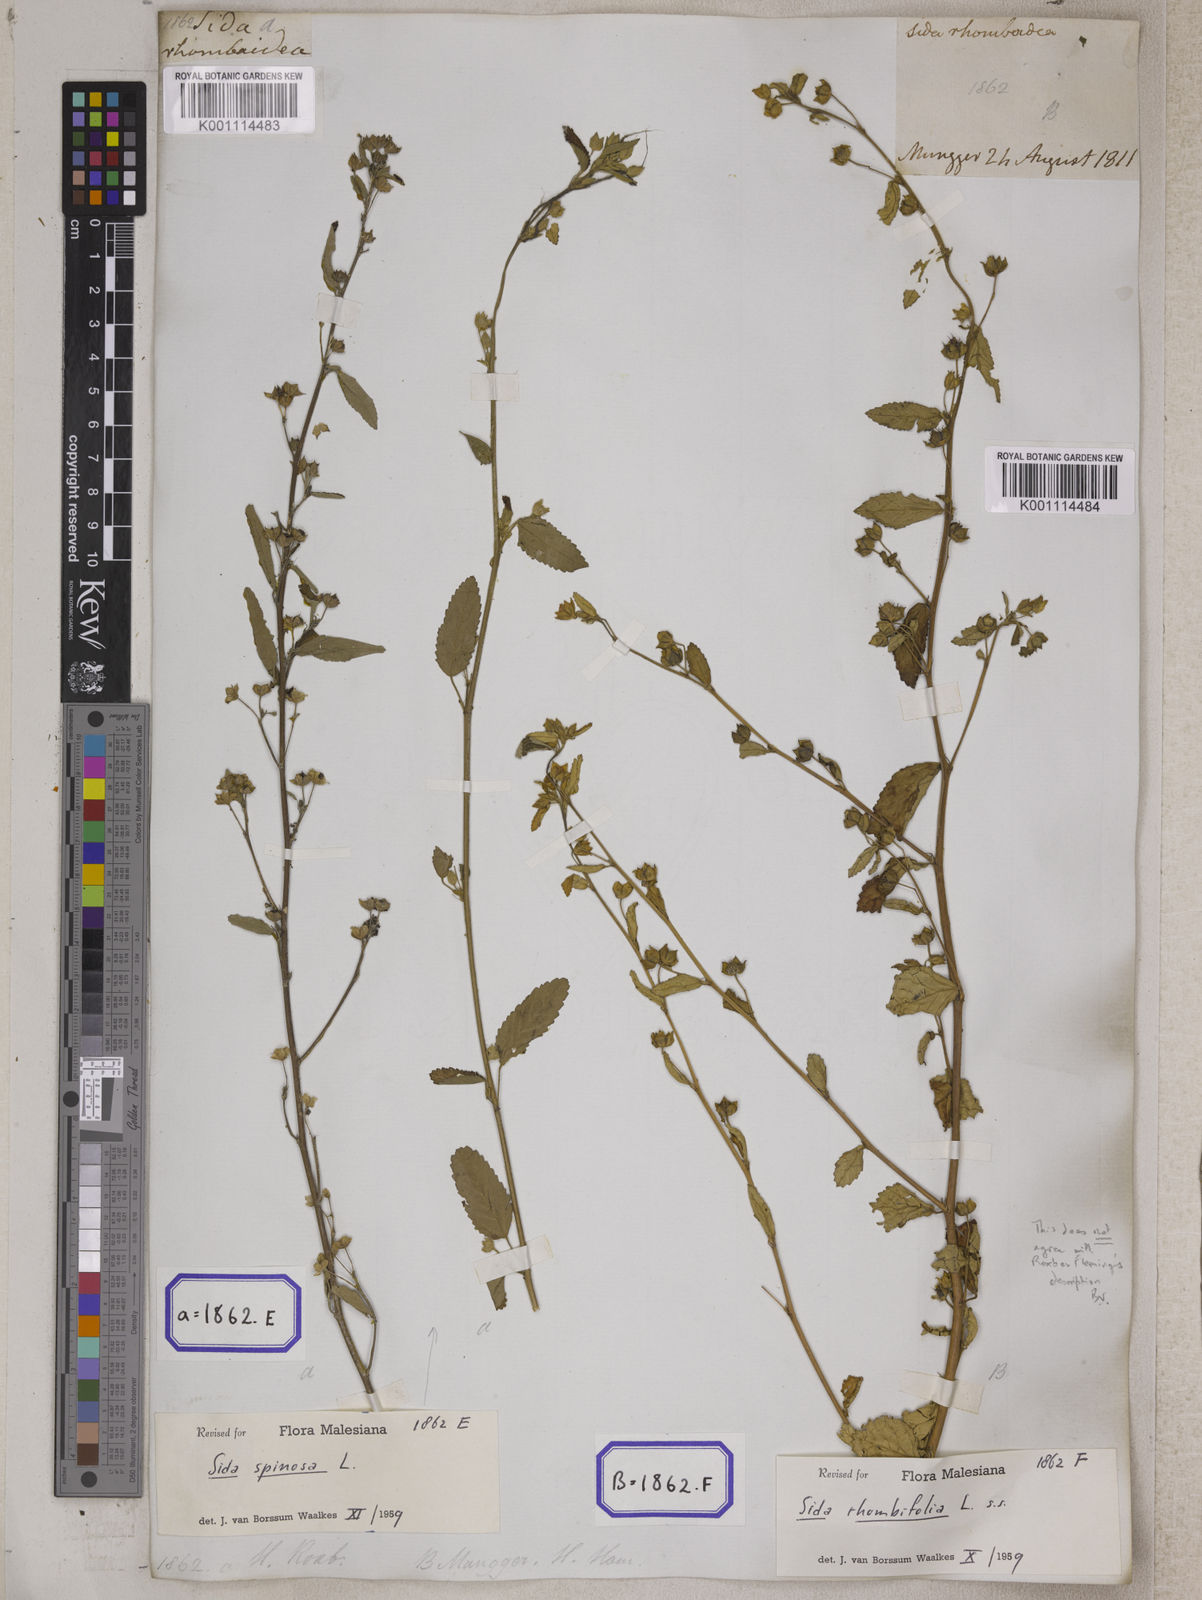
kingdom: Plantae
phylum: Tracheophyta
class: Magnoliopsida
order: Malvales
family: Malvaceae
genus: Sida
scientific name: Sida rhombifolia
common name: Queensland-hemp
